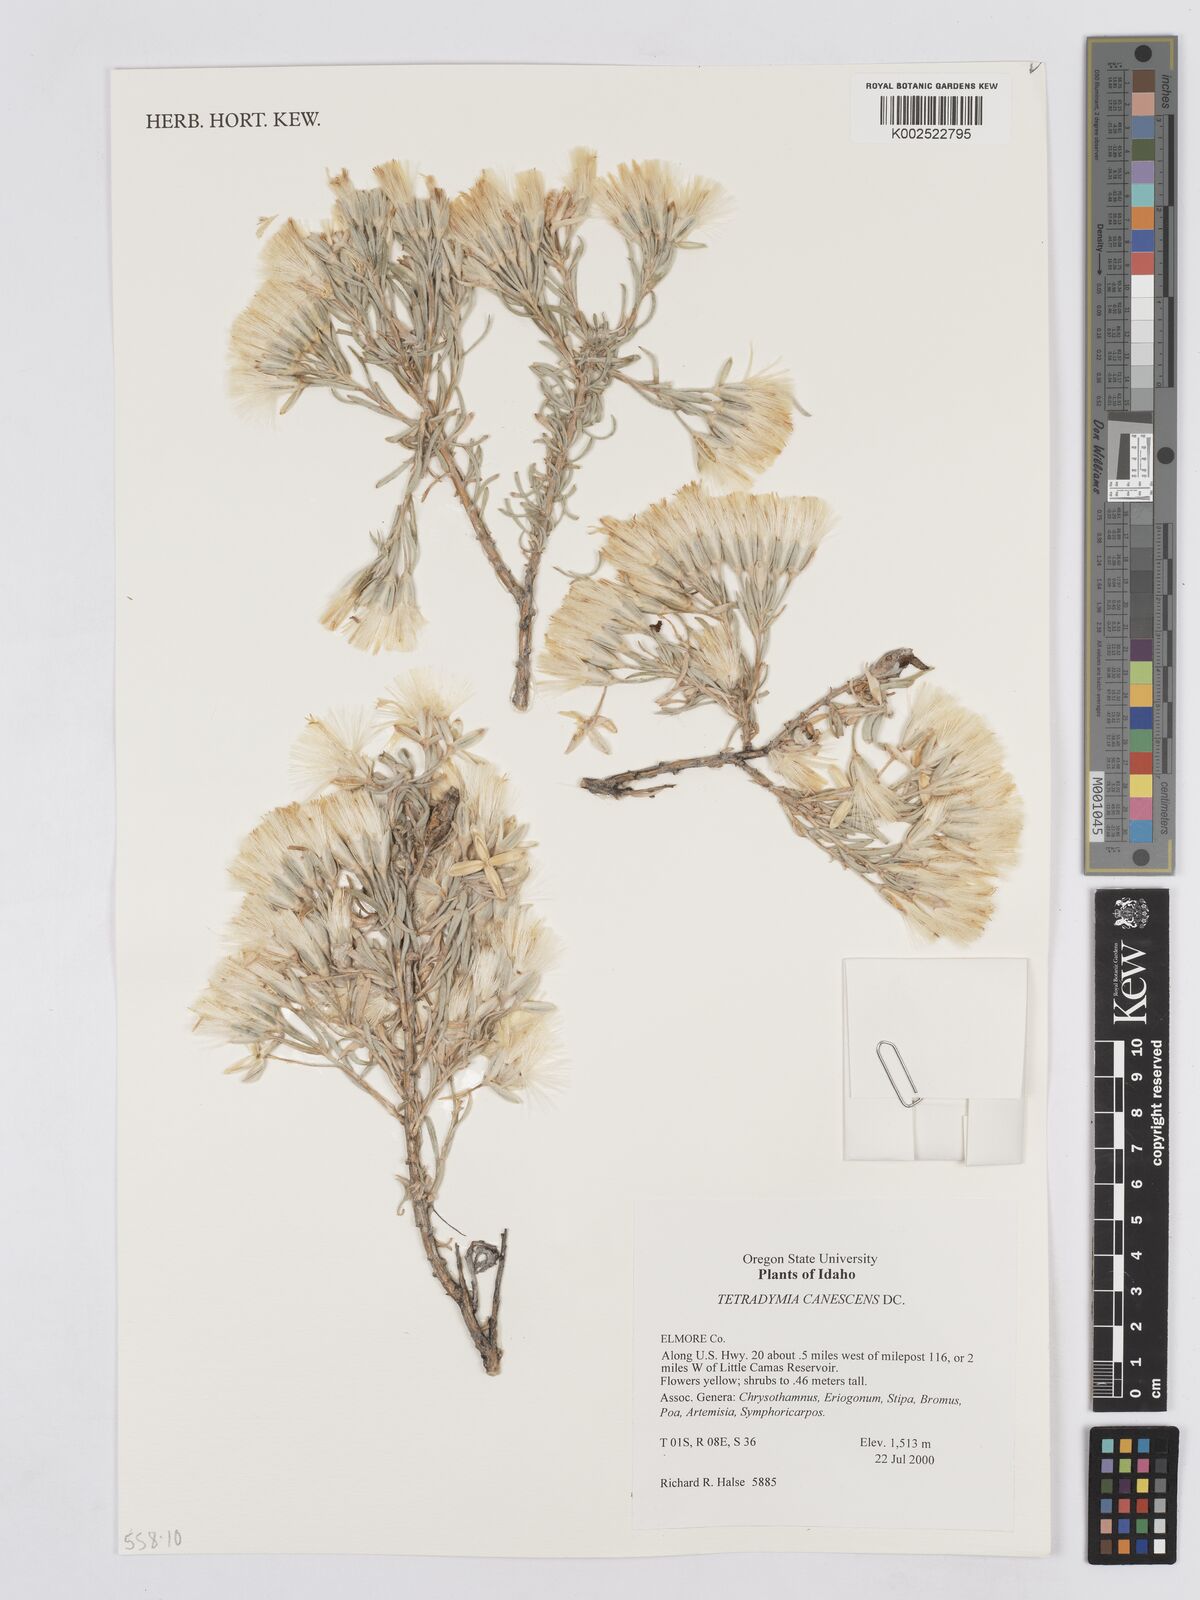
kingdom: Plantae
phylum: Tracheophyta
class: Magnoliopsida
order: Asterales
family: Asteraceae
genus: Tetradymia
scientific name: Tetradymia canescens
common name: Spineless horsebrush
